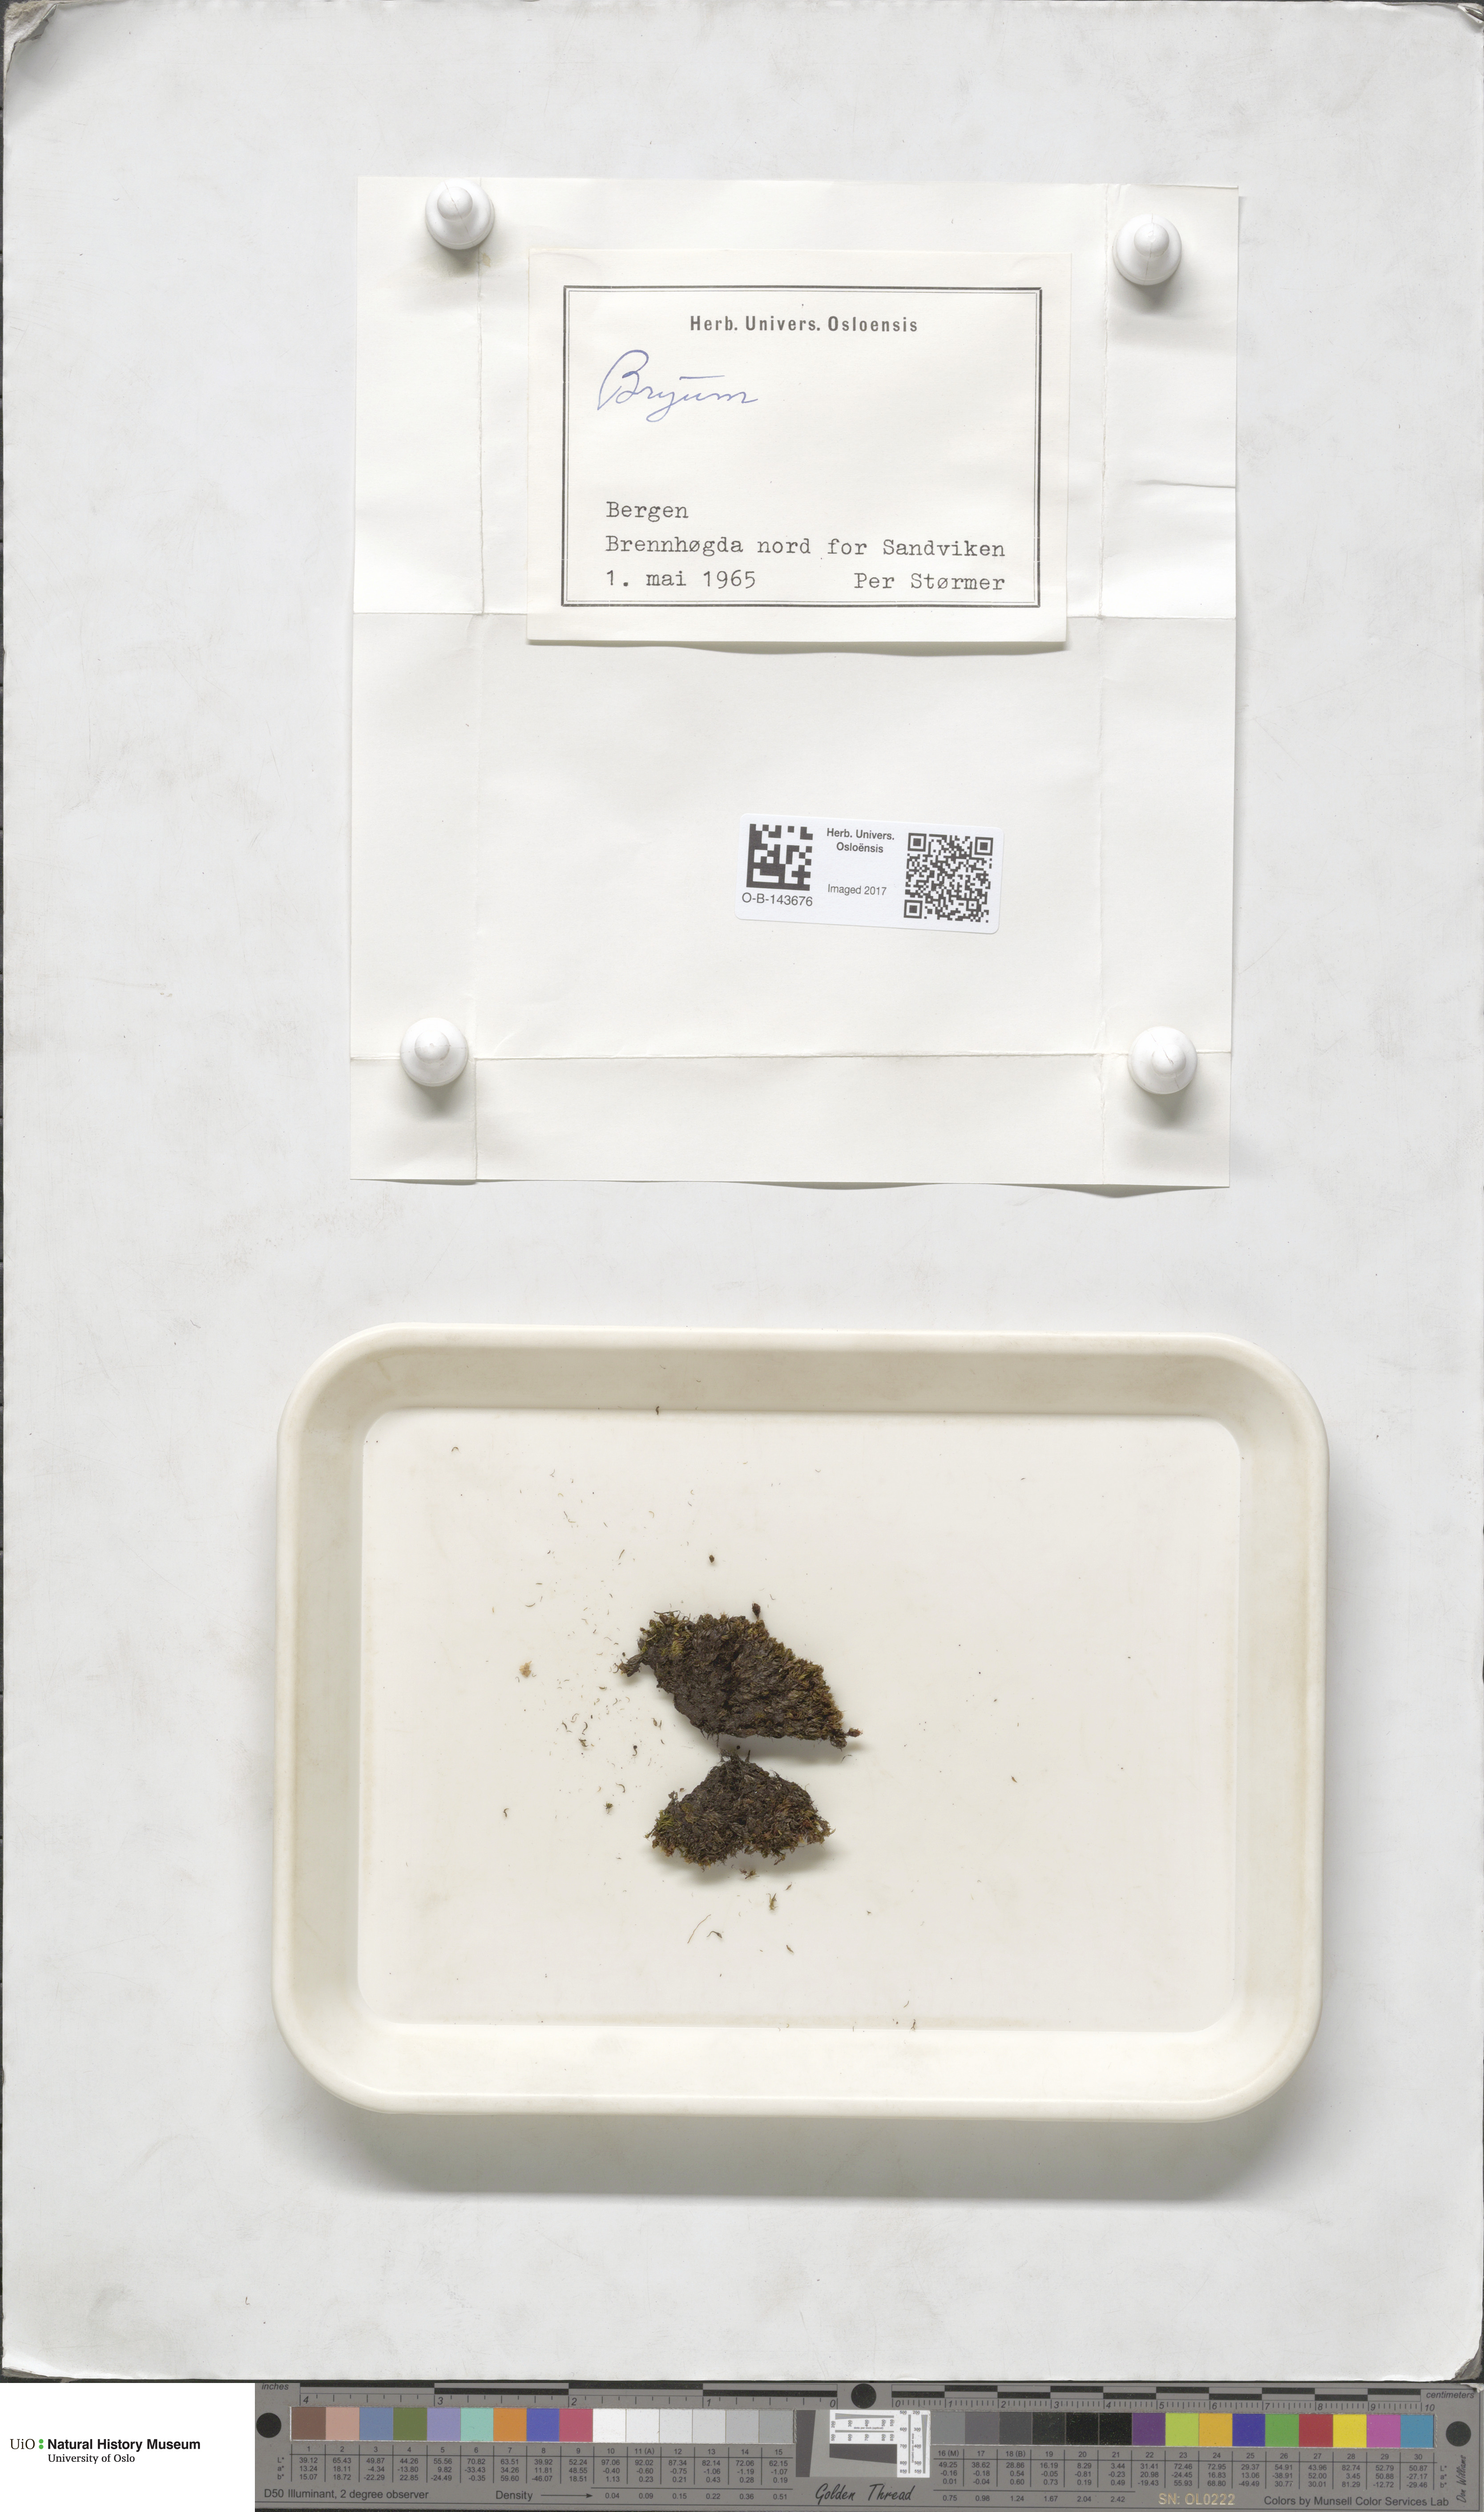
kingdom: Plantae
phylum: Bryophyta
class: Bryopsida
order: Bryales
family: Bryaceae
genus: Bryum
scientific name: Bryum
